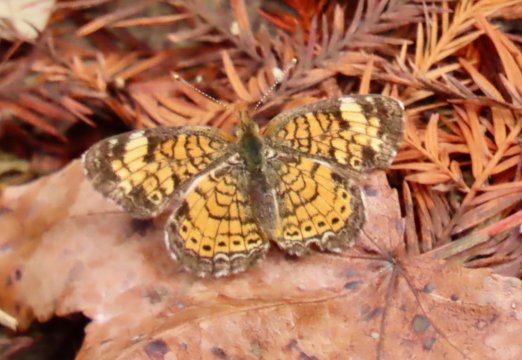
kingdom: Animalia
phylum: Arthropoda
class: Insecta
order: Lepidoptera
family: Nymphalidae
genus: Phyciodes
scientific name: Phyciodes tharos
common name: Pearl Crescent
